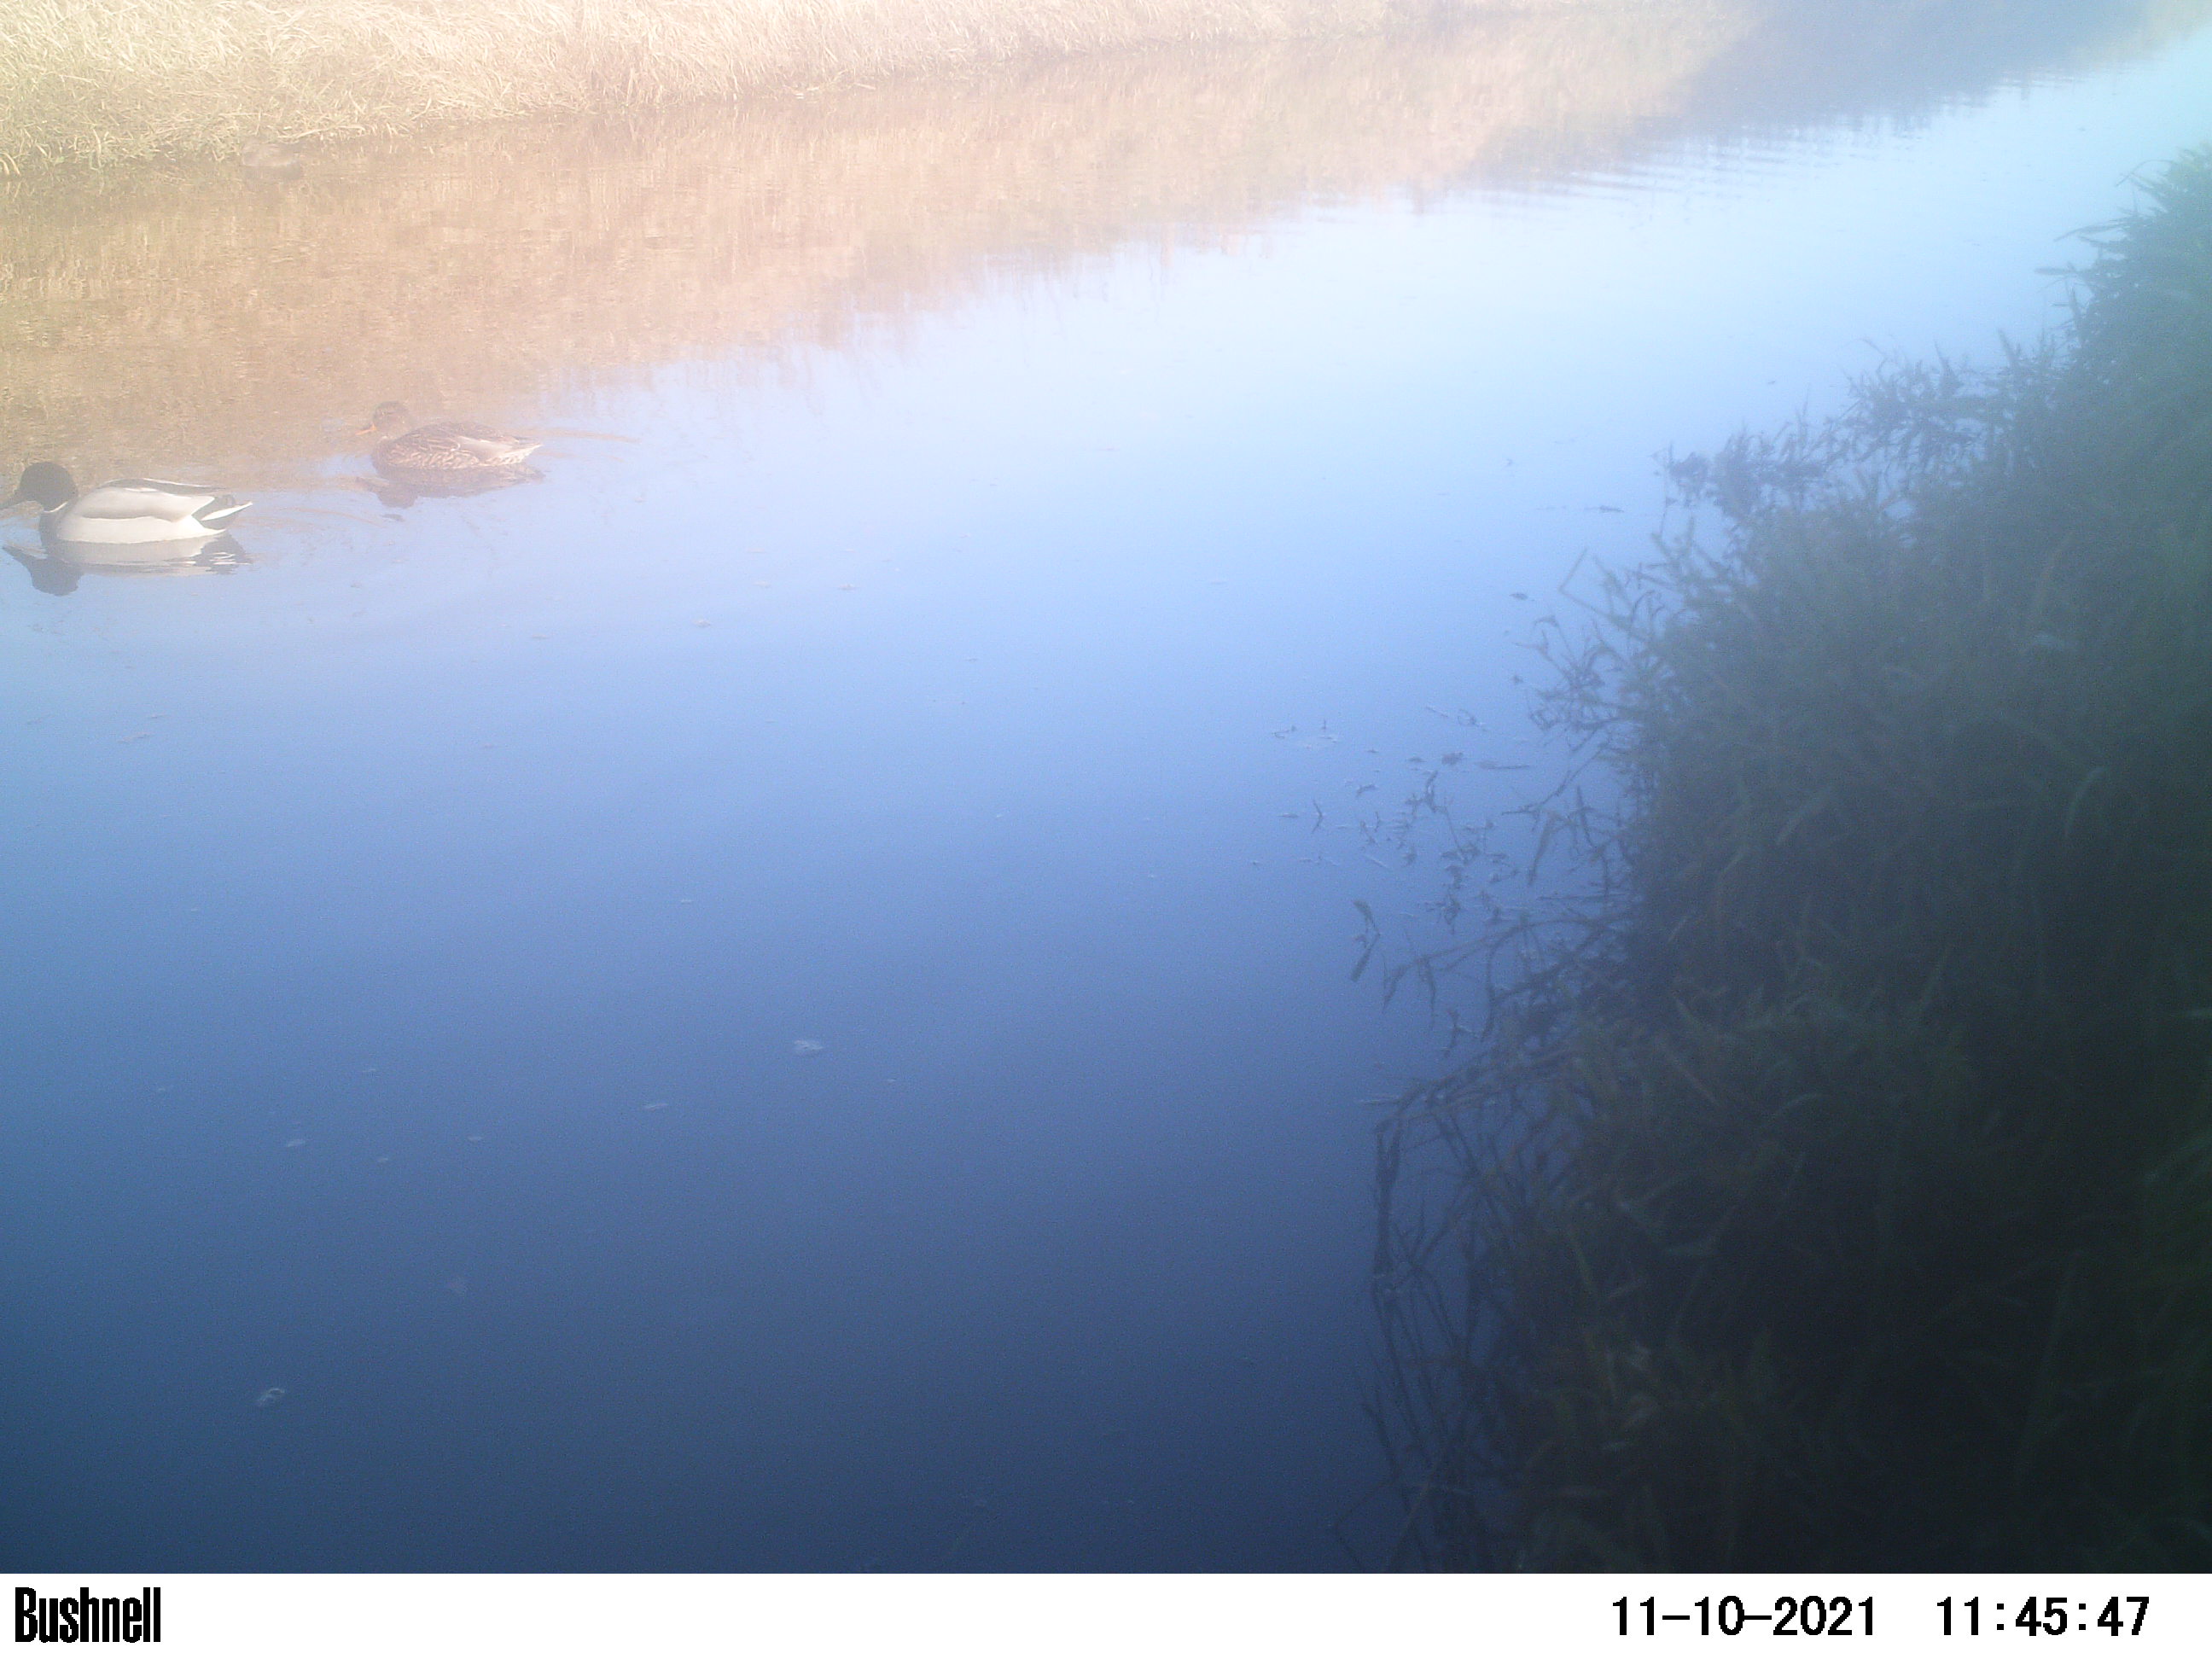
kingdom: Animalia
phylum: Chordata
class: Aves
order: Anseriformes
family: Anatidae
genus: Anas
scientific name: Anas
